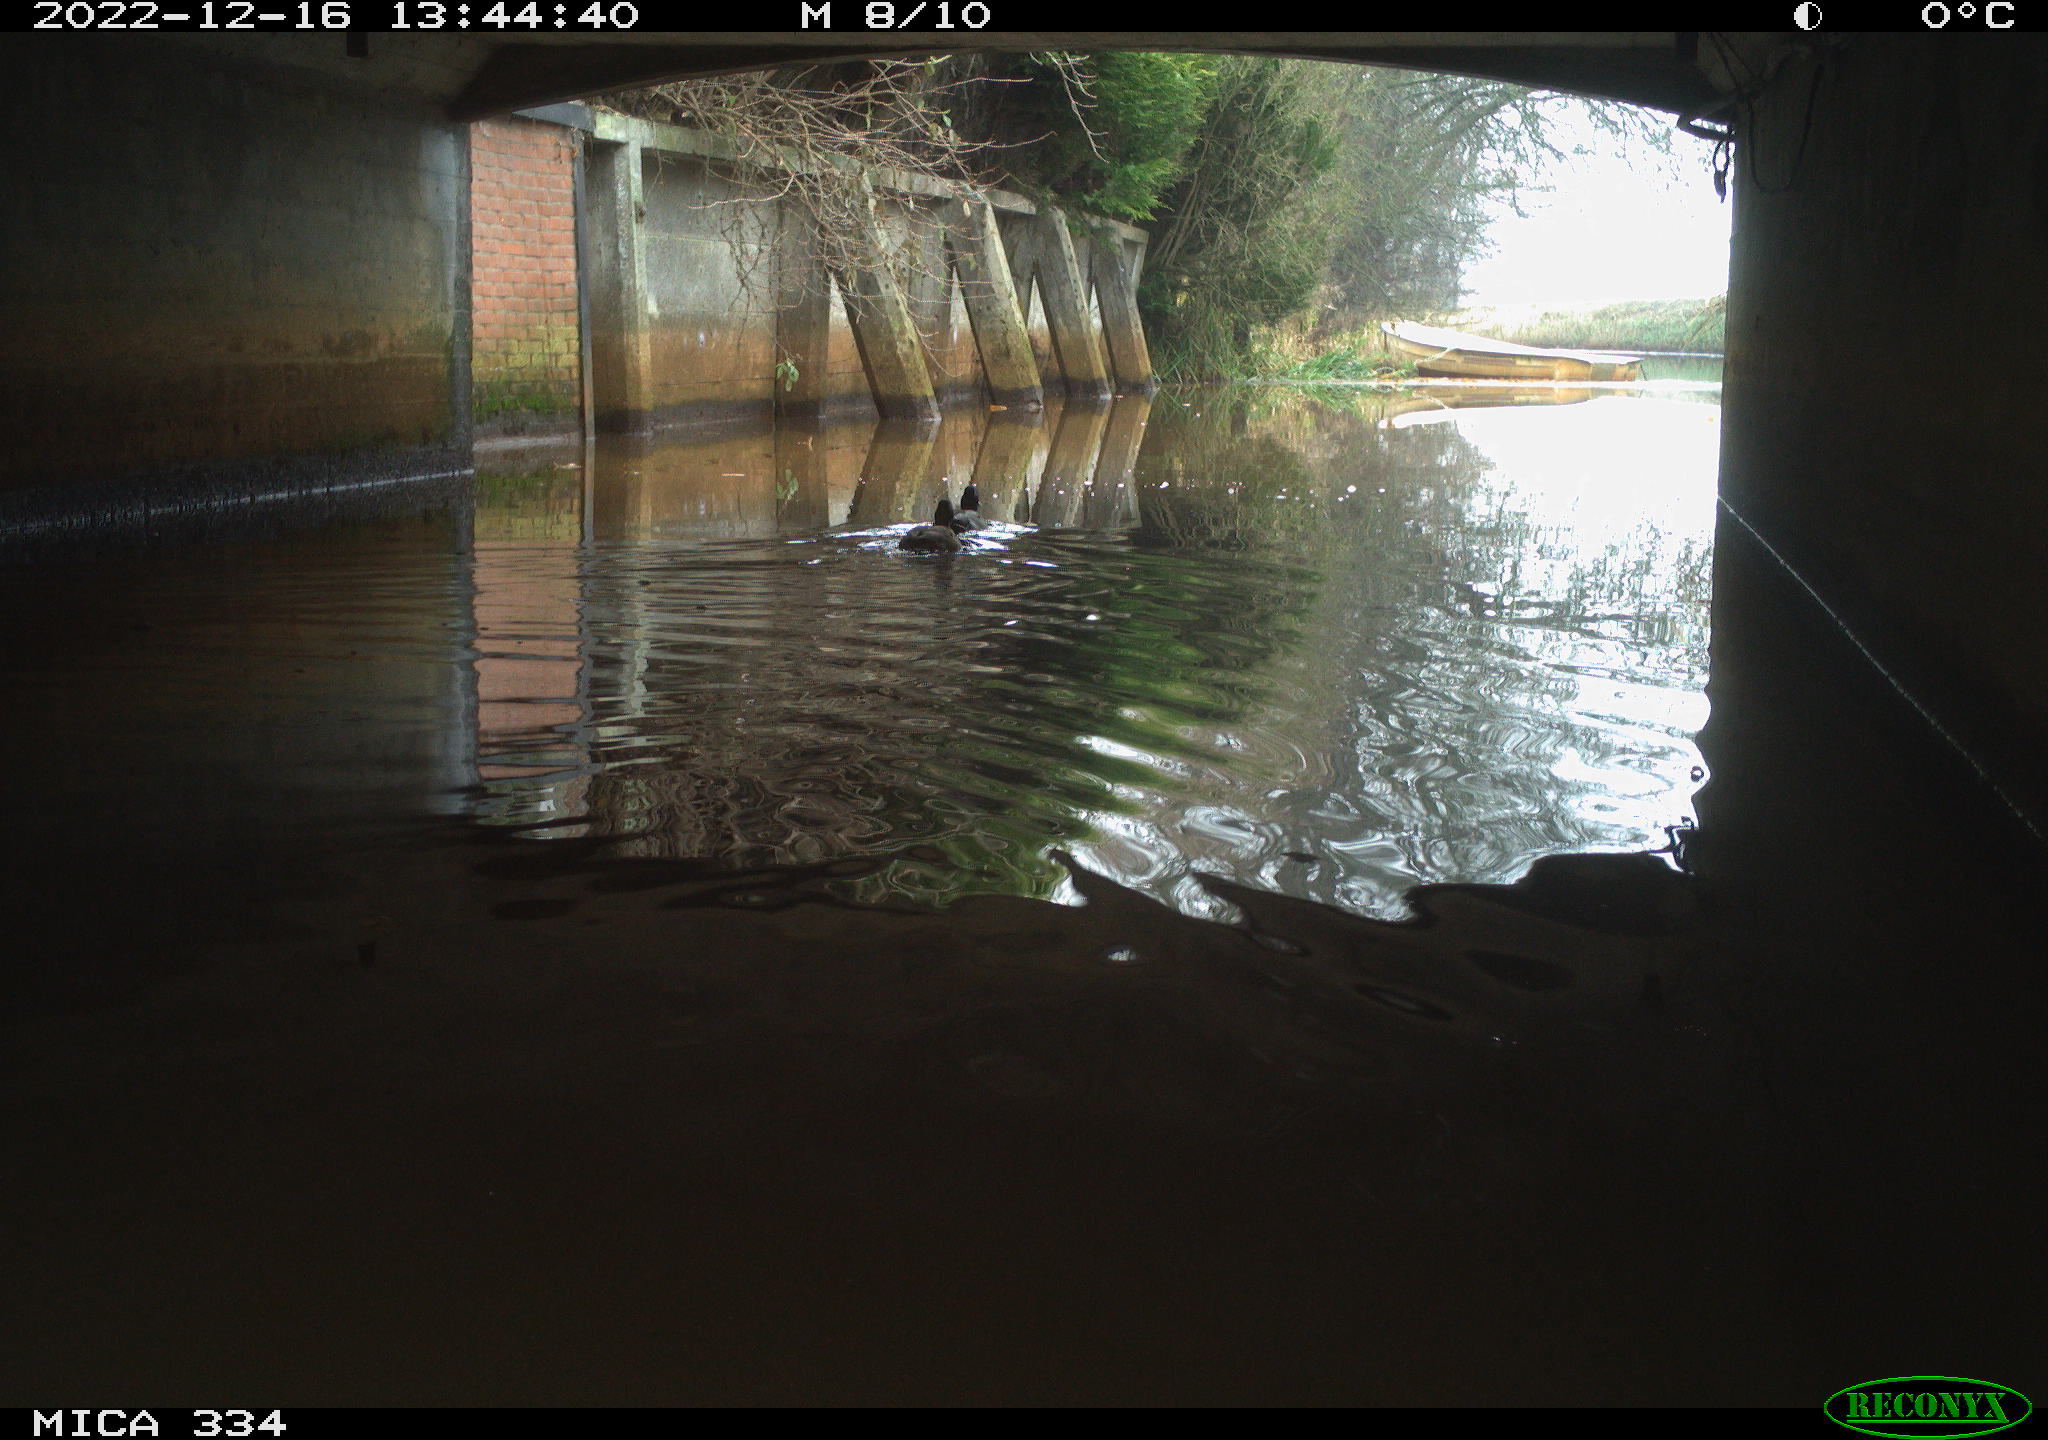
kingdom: Animalia
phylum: Chordata
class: Aves
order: Anseriformes
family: Anatidae
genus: Anas
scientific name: Anas platyrhynchos
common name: Mallard
